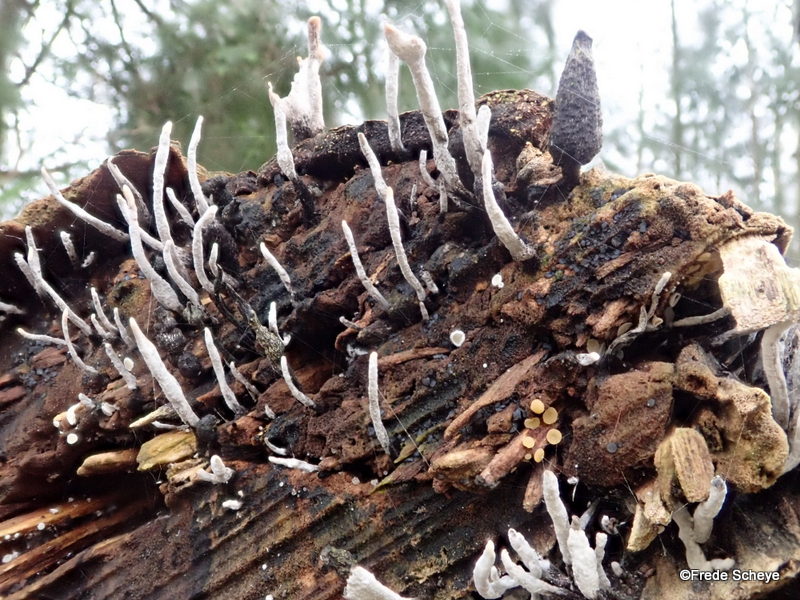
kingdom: Fungi
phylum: Ascomycota
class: Sordariomycetes
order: Xylariales
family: Xylariaceae
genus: Xylaria
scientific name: Xylaria hypoxylon
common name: grenet stødsvamp
